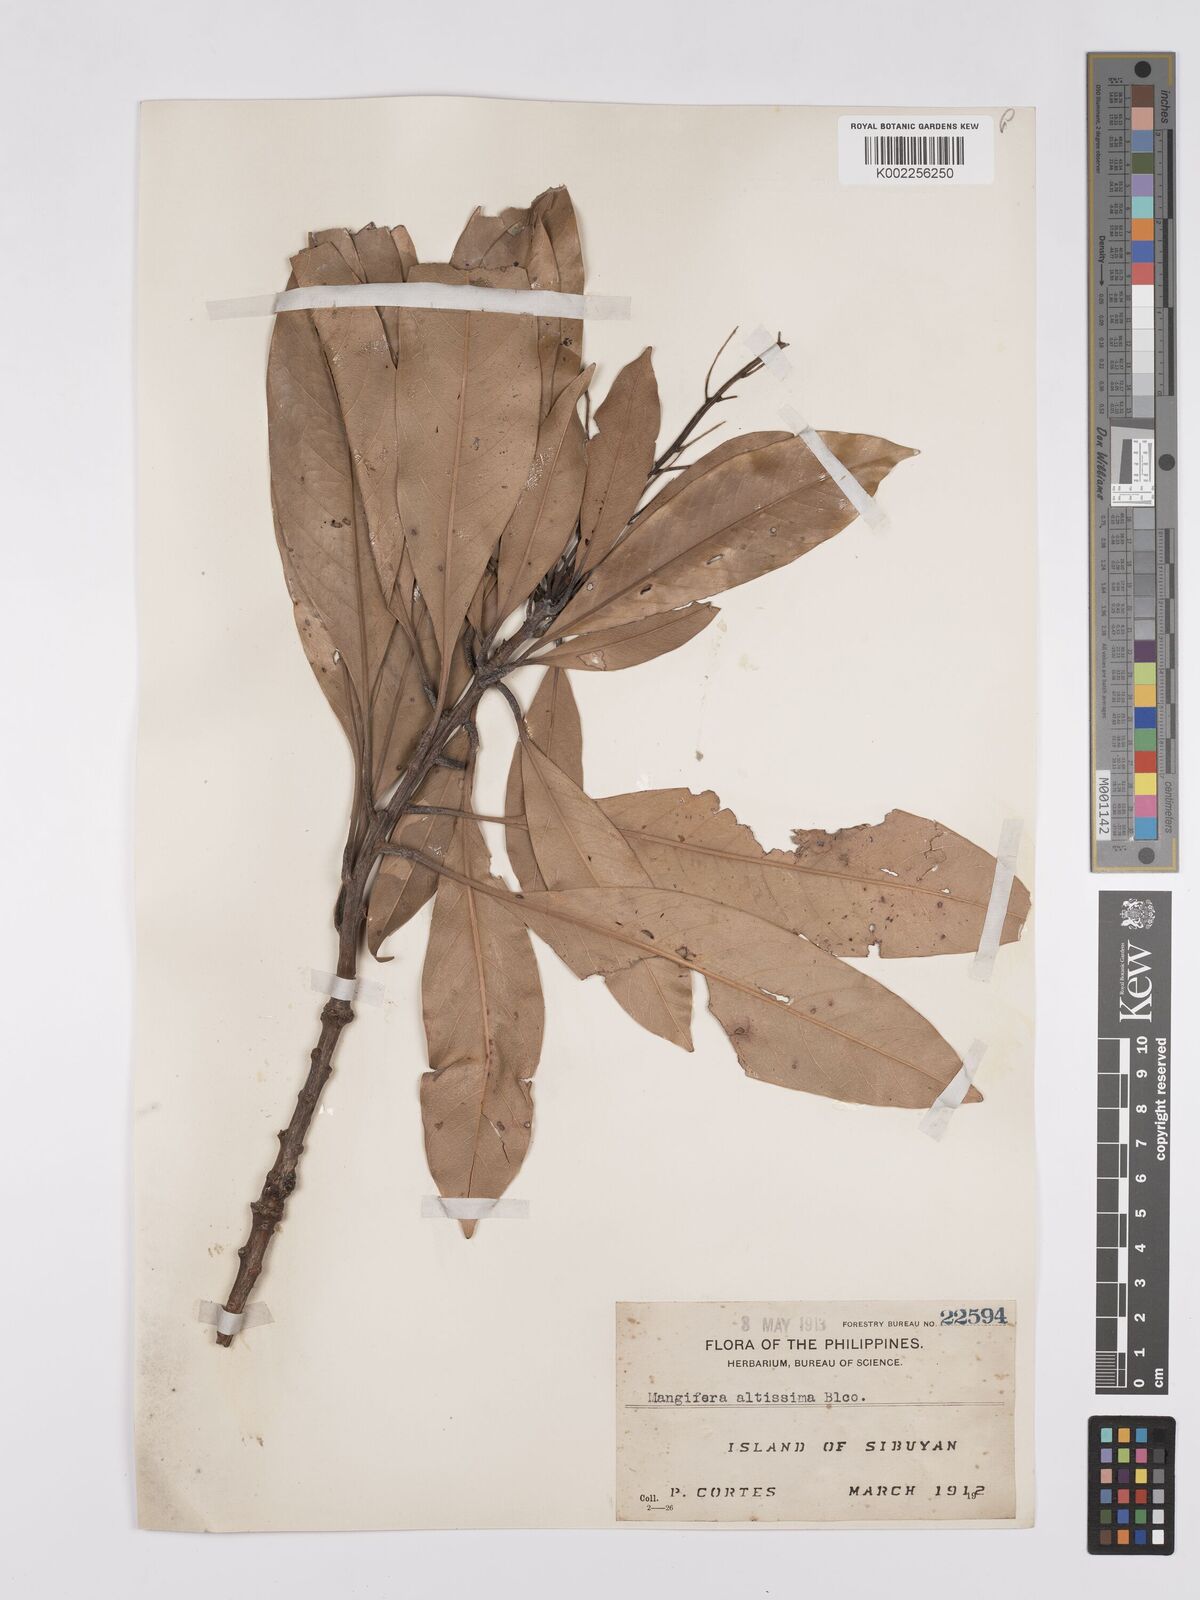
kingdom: Plantae
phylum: Tracheophyta
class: Magnoliopsida
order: Sapindales
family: Anacardiaceae
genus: Mangifera
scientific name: Mangifera altissima
